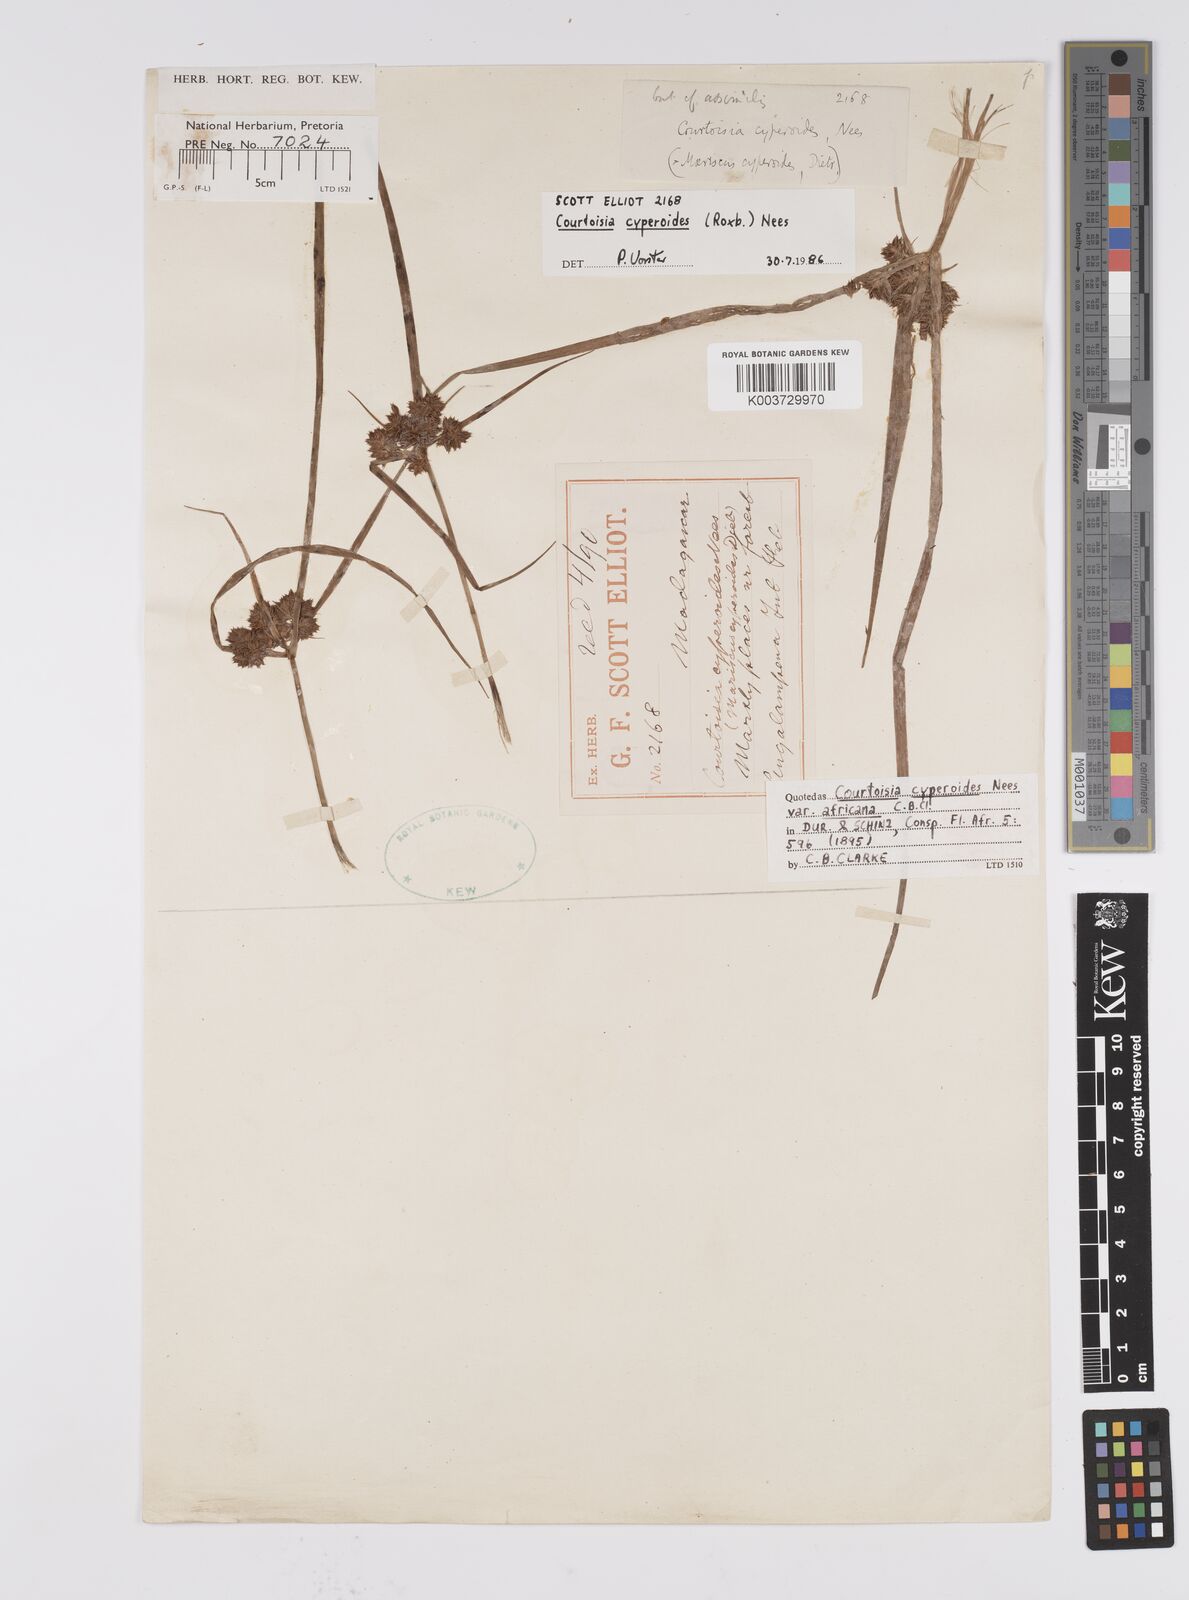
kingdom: Plantae
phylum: Tracheophyta
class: Liliopsida
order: Poales
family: Cyperaceae
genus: Cyperus
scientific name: Cyperus cyperoides
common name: Pacific island flat sedge
